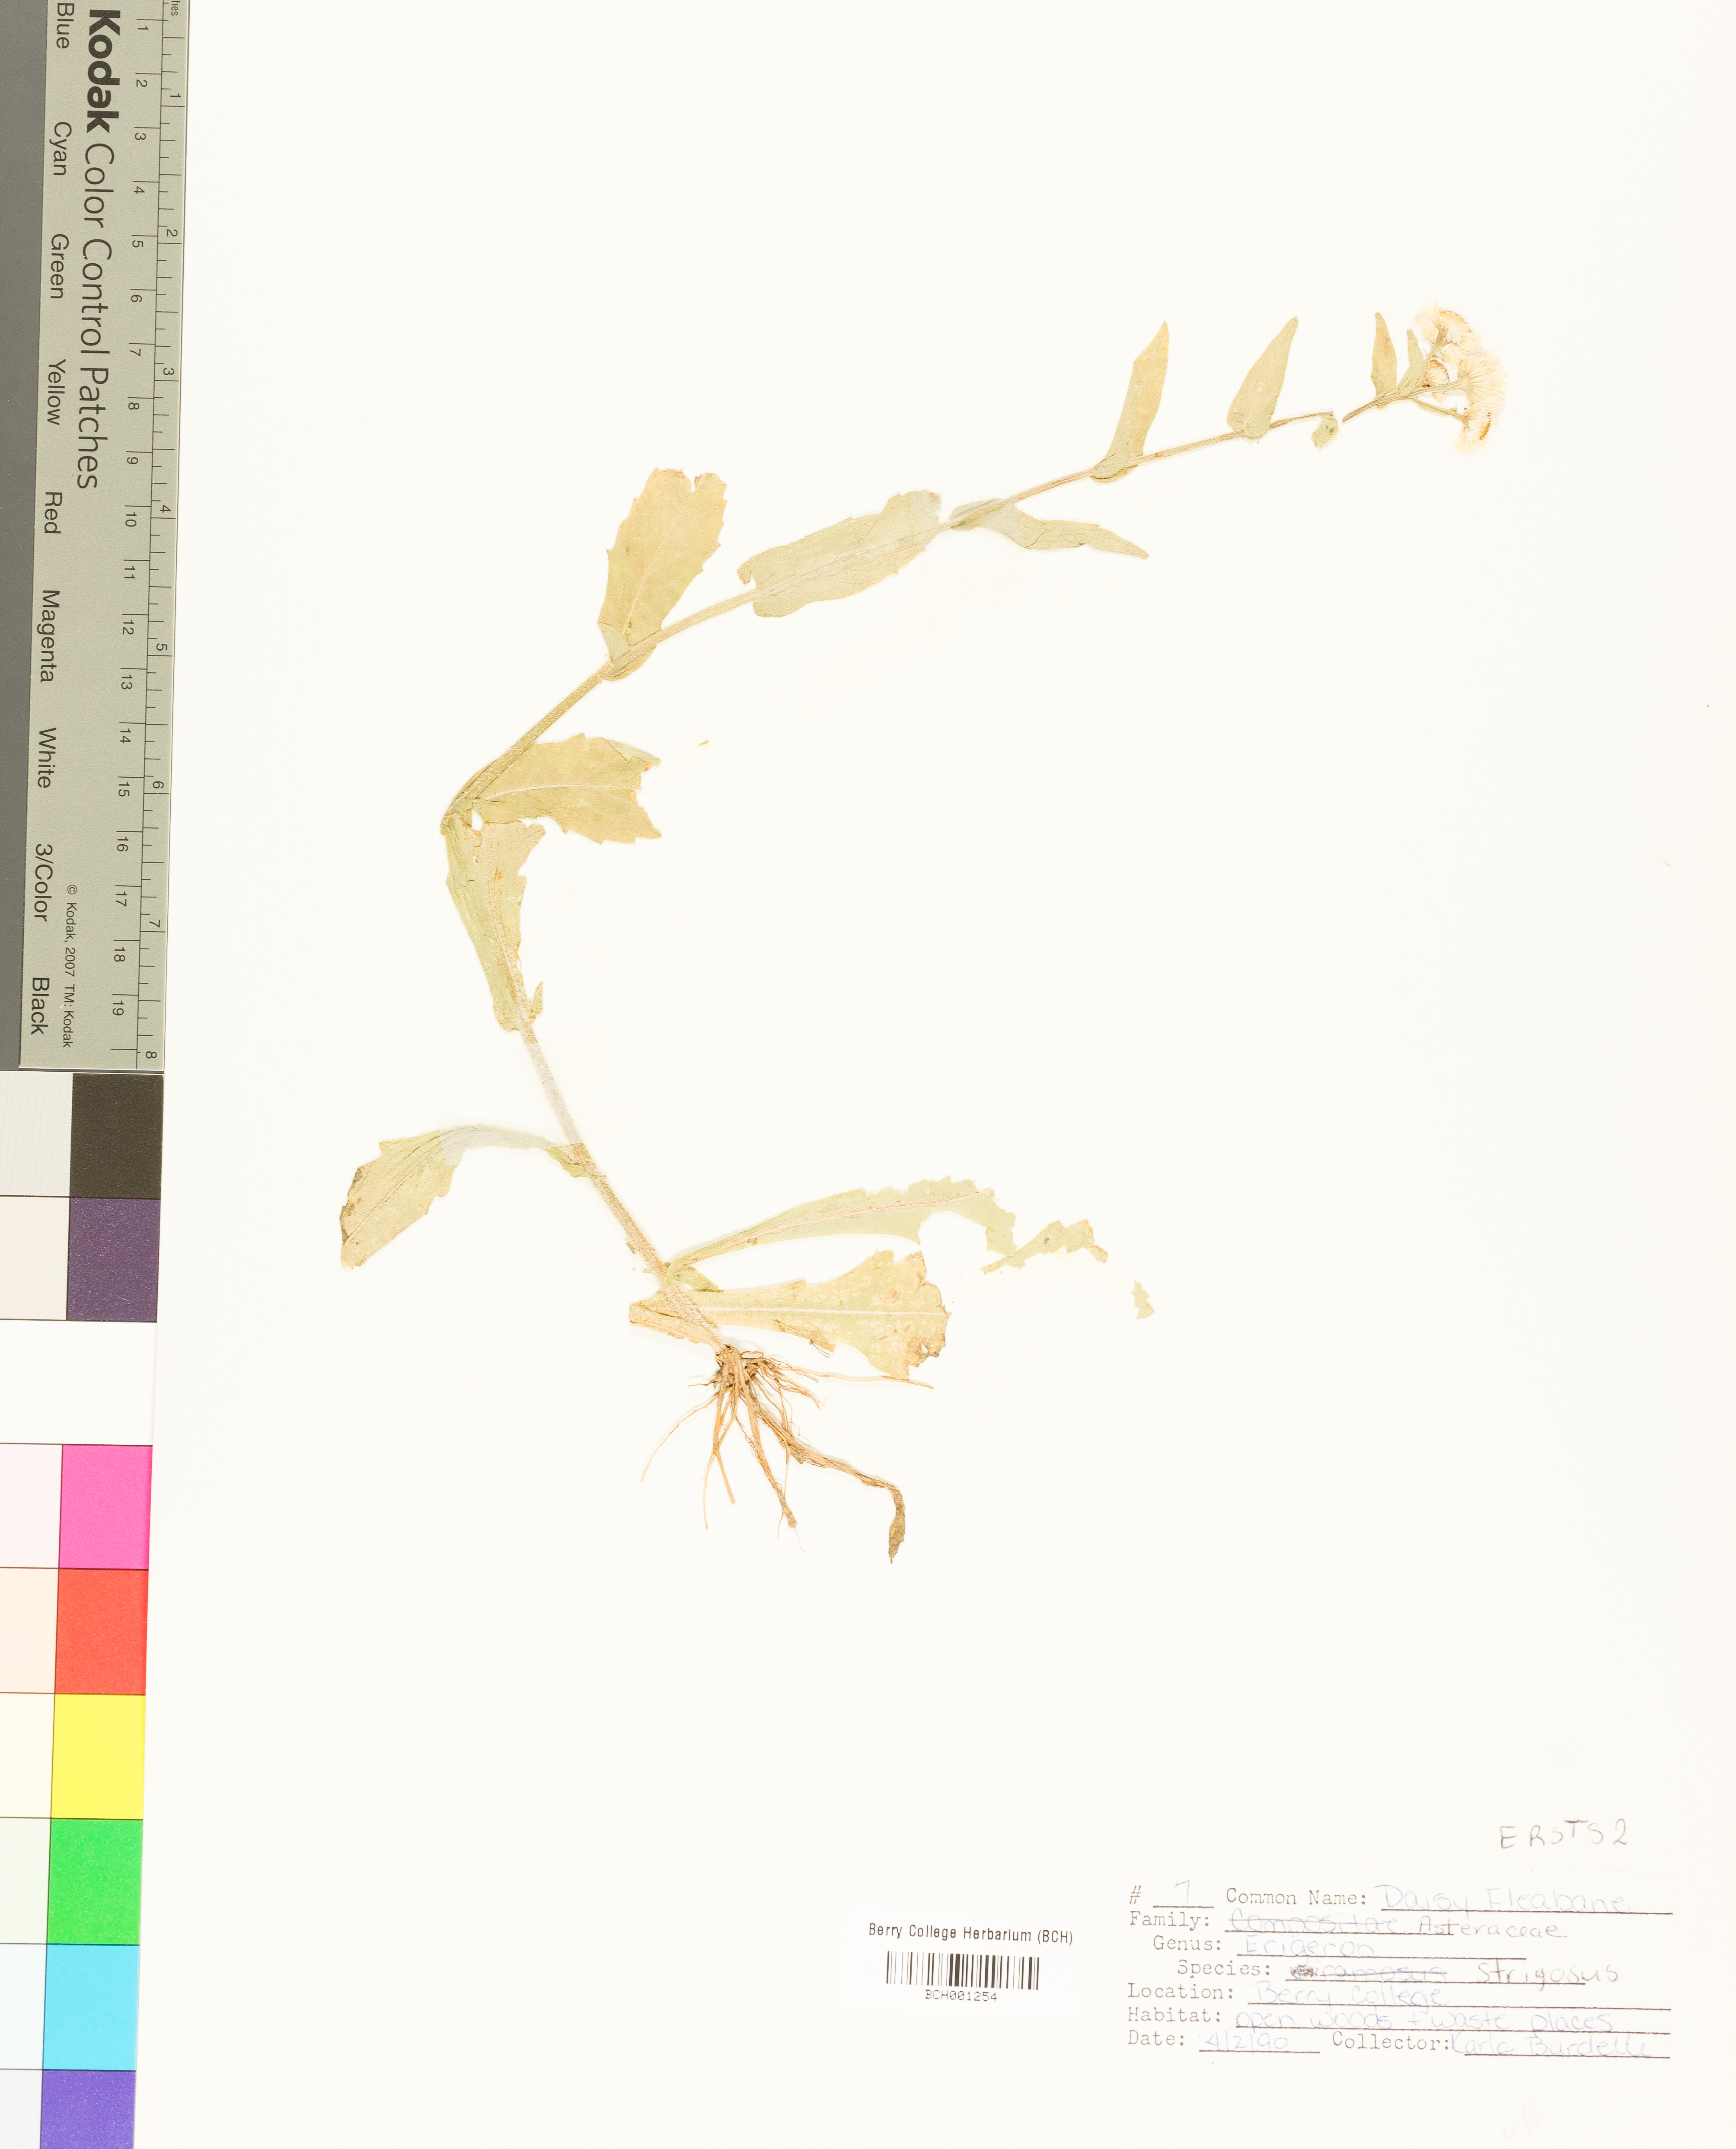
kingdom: Plantae
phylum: Tracheophyta
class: Magnoliopsida
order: Asterales
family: Asteraceae
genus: Erigeron
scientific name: Erigeron strigosus
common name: Common eastern fleabane
